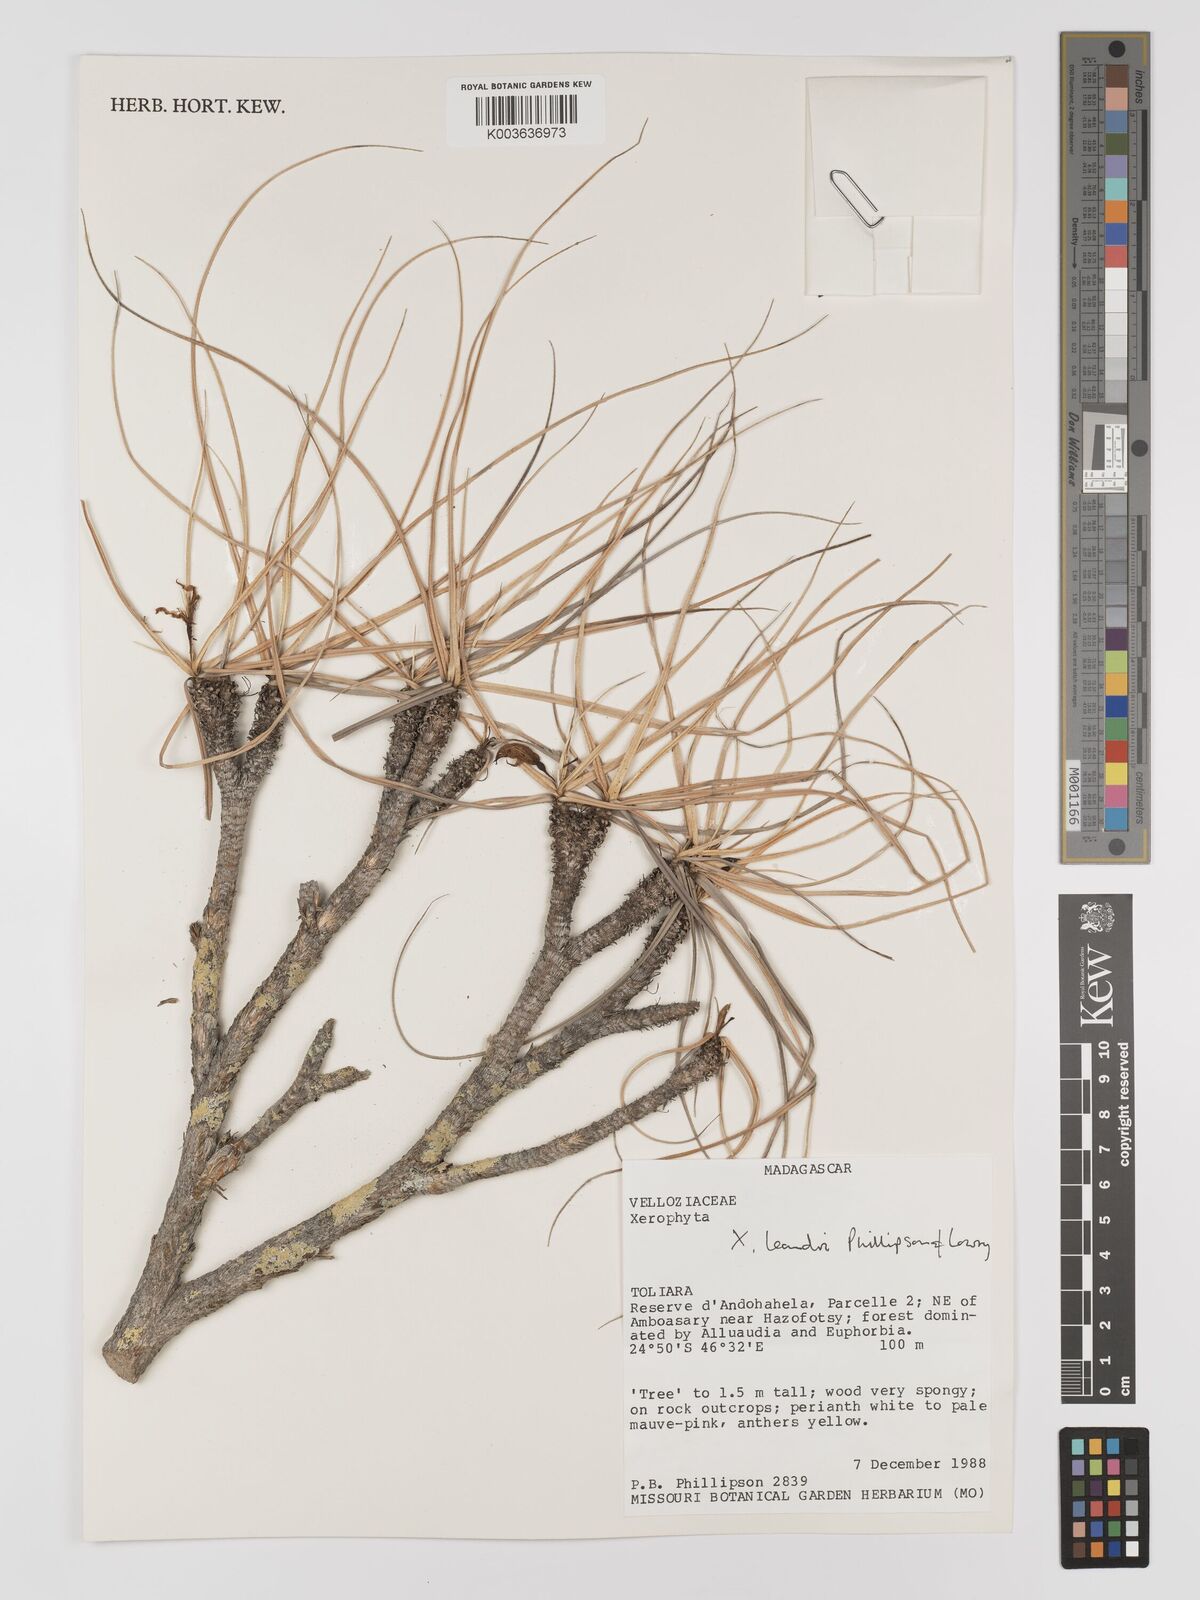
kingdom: Plantae
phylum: Tracheophyta
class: Liliopsida
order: Pandanales
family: Velloziaceae
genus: Xerophyta
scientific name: Xerophyta
